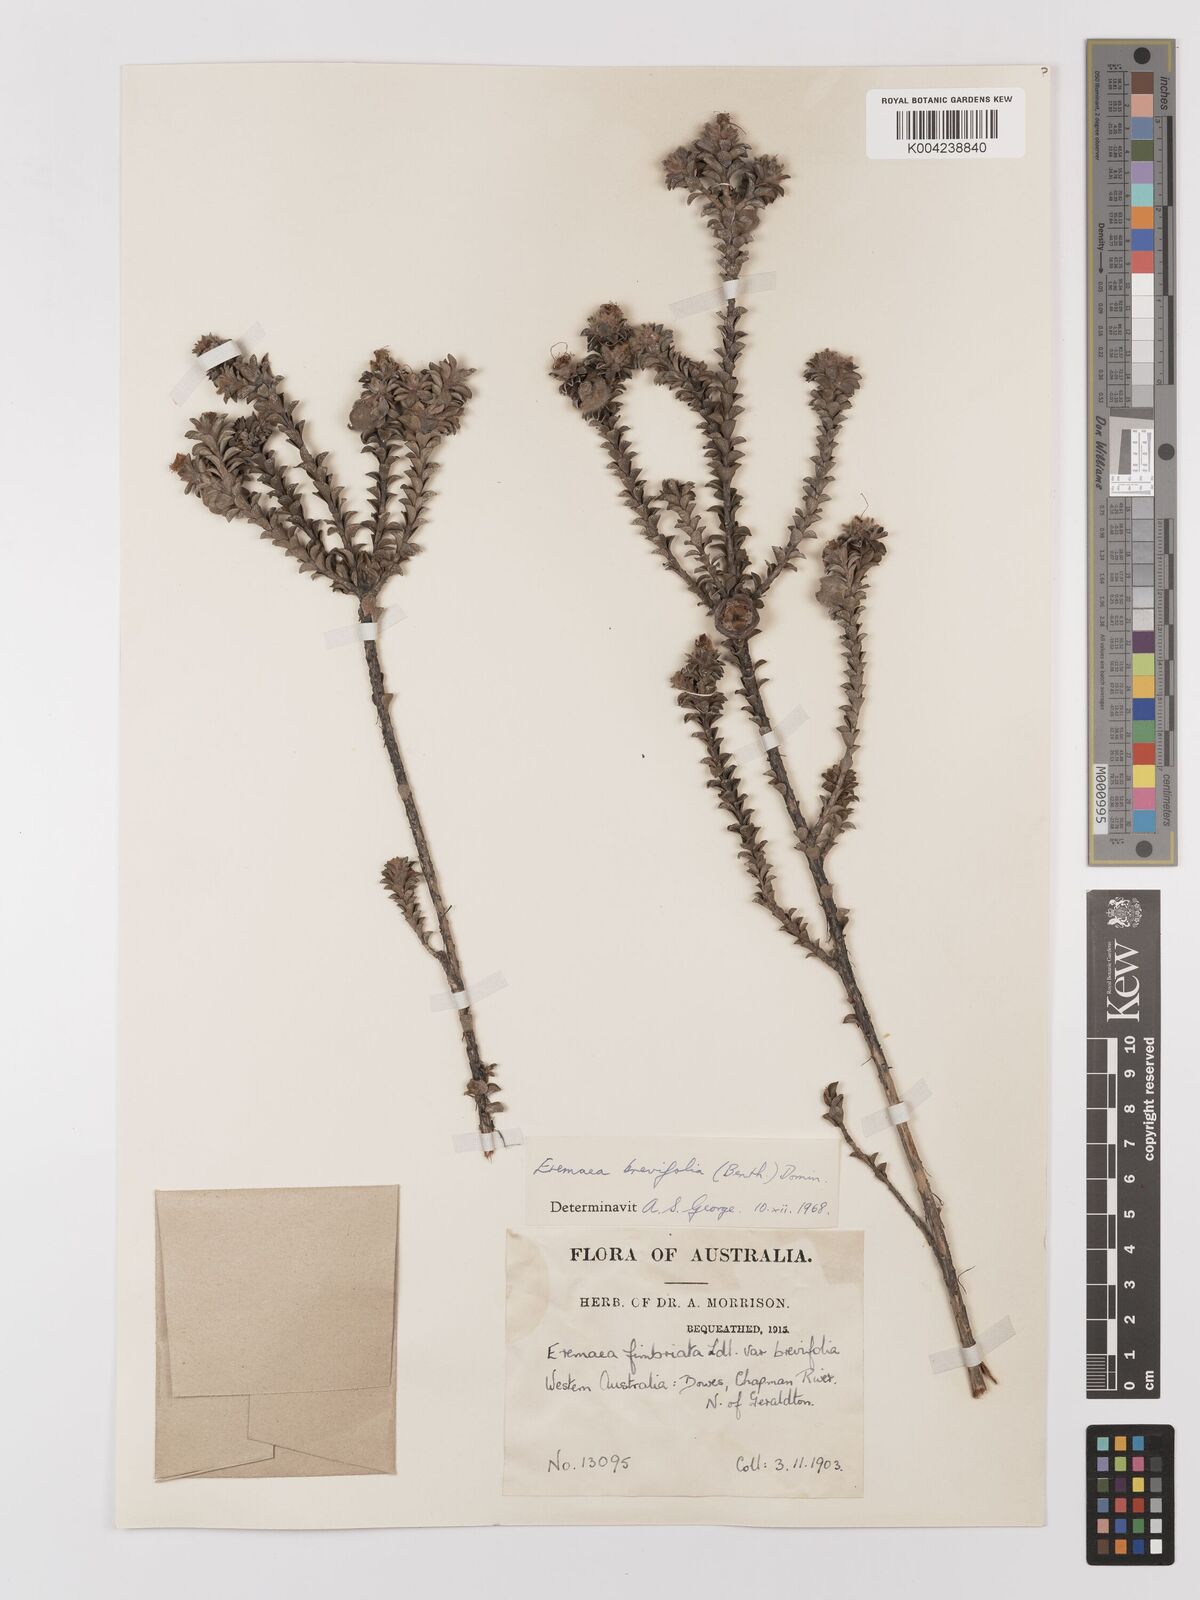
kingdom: Plantae
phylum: Tracheophyta
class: Magnoliopsida
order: Myrtales
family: Myrtaceae
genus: Melaleuca
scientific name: Melaleuca curtifolia
